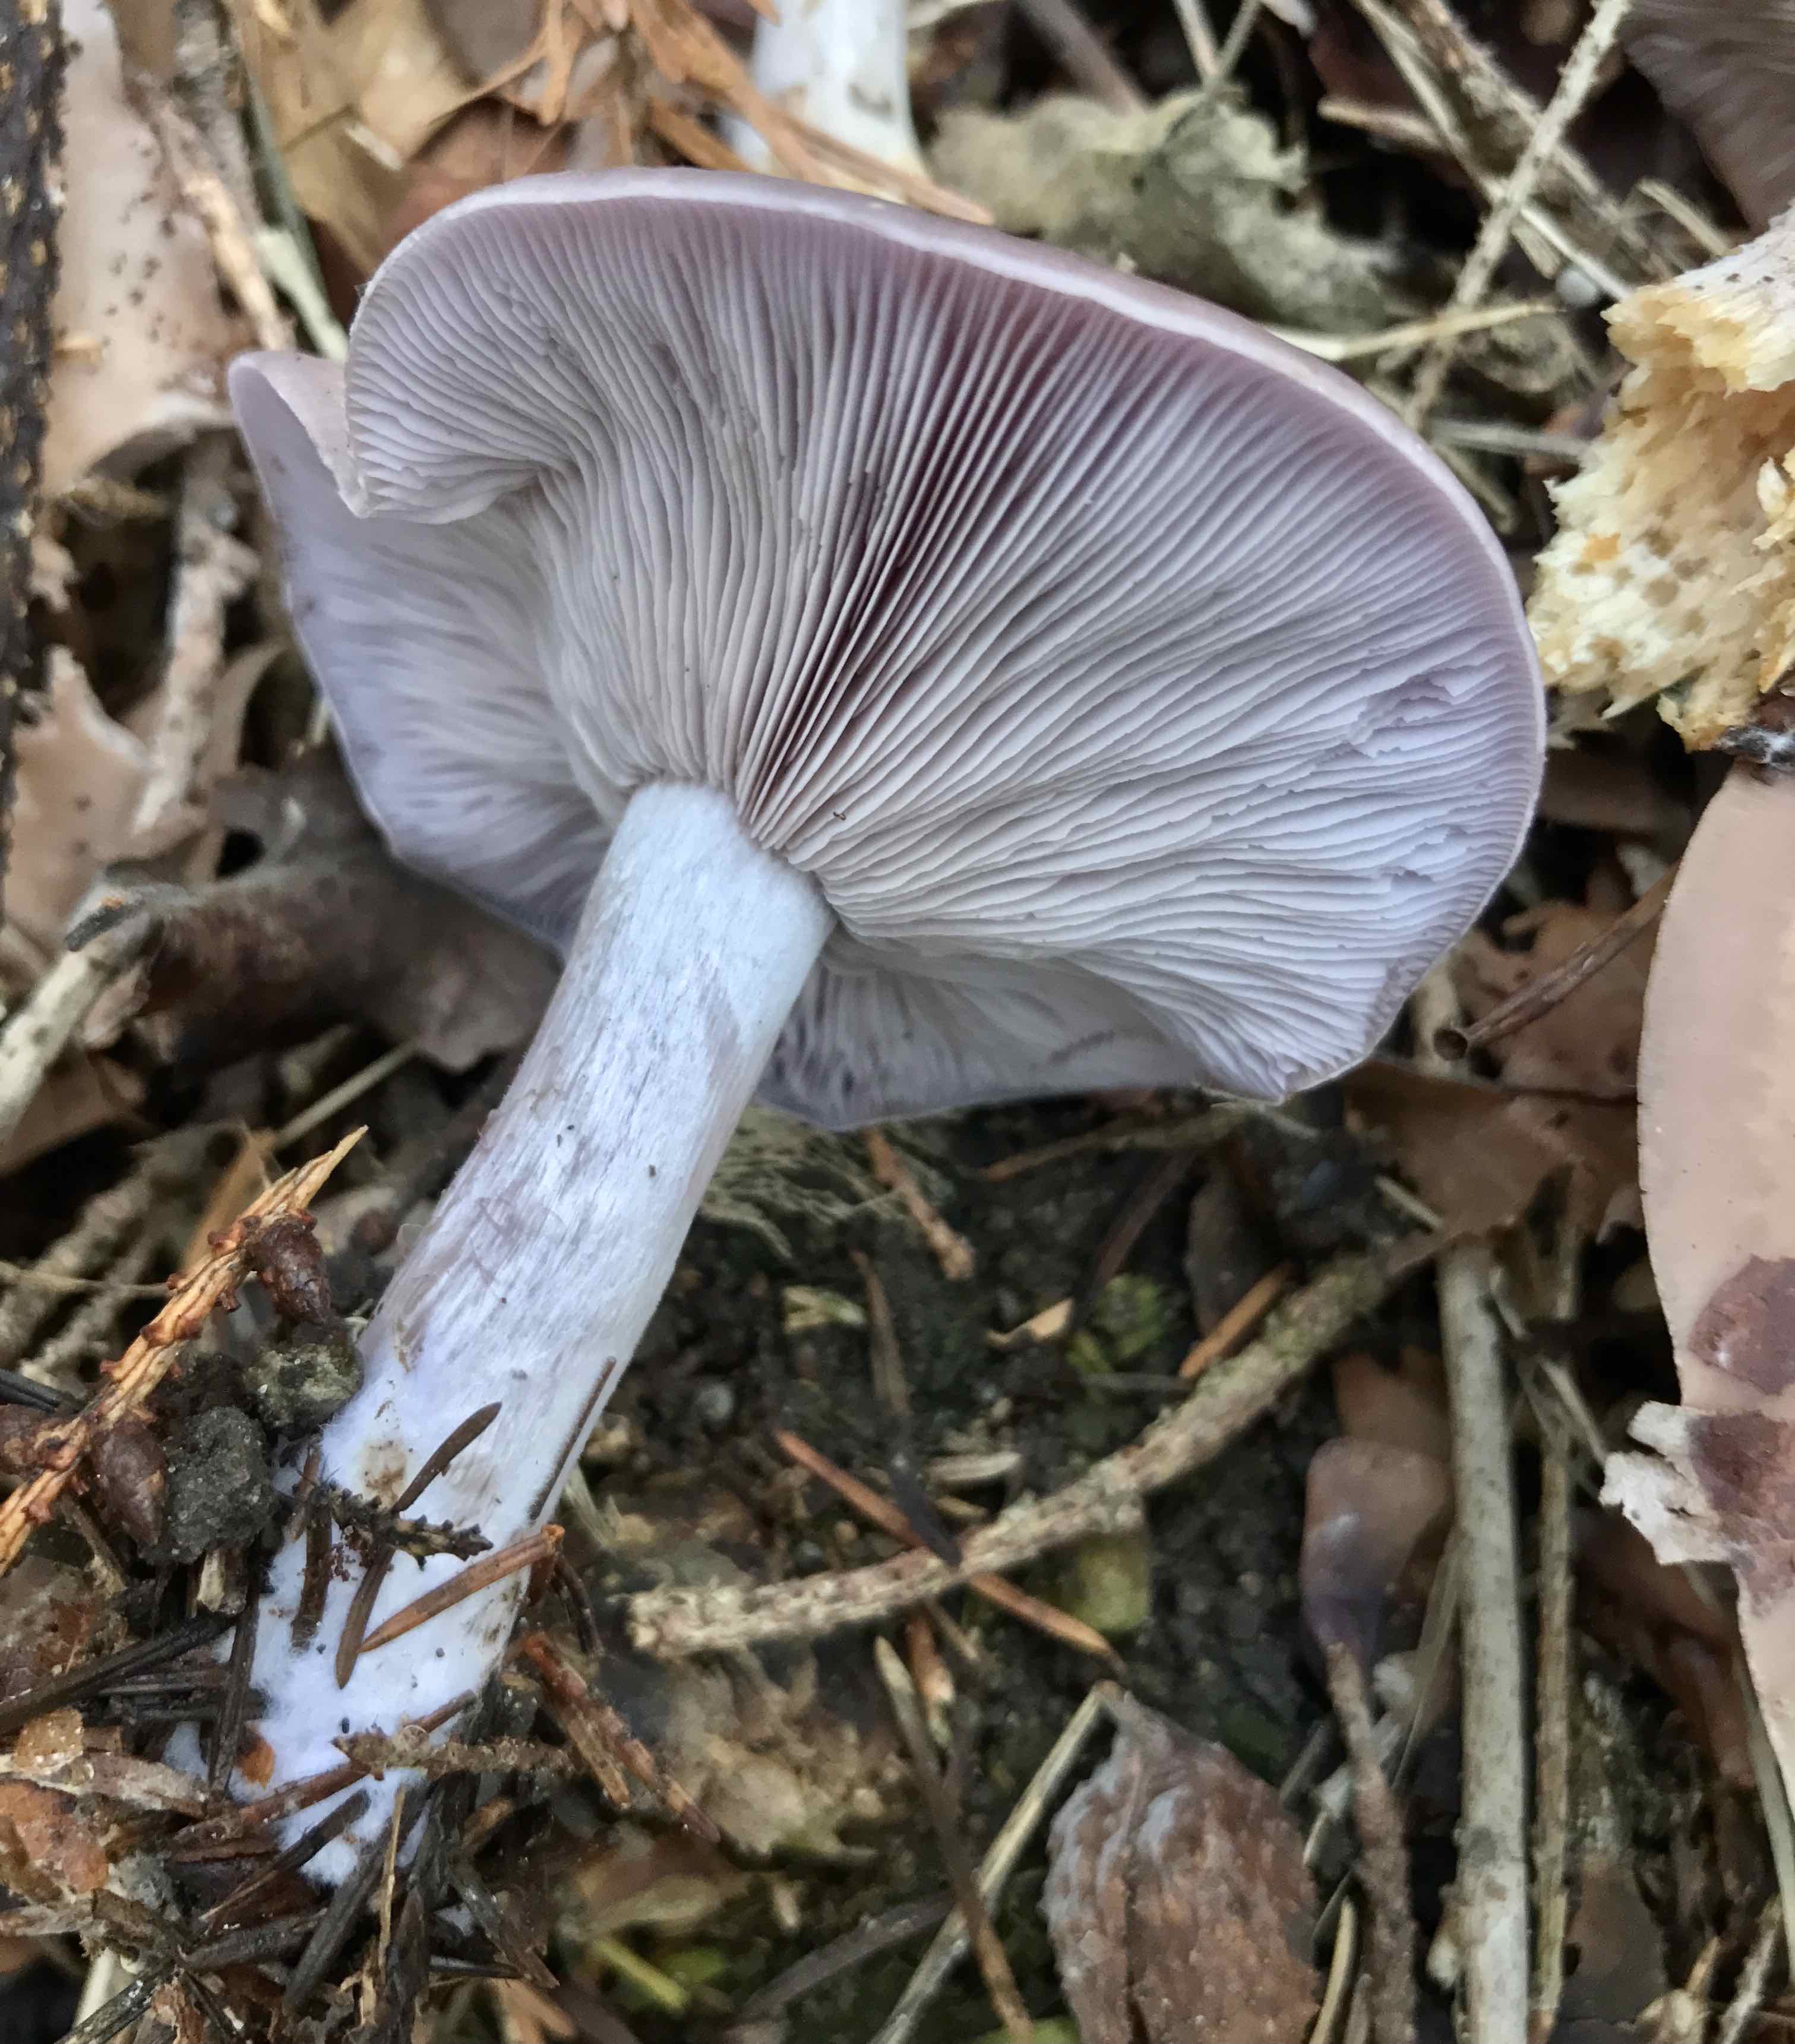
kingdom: Fungi
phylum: Basidiomycota
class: Agaricomycetes
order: Agaricales
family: Tricholomataceae
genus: Lepista
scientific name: Lepista nuda
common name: violet hekseringshat
